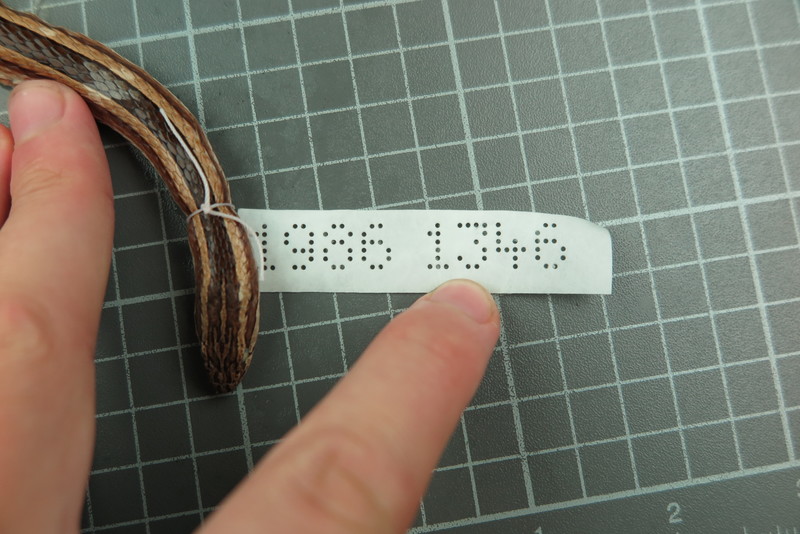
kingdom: Animalia
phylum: Chordata
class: Squamata
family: Psammophiidae
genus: Mimophis
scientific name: Mimophis
